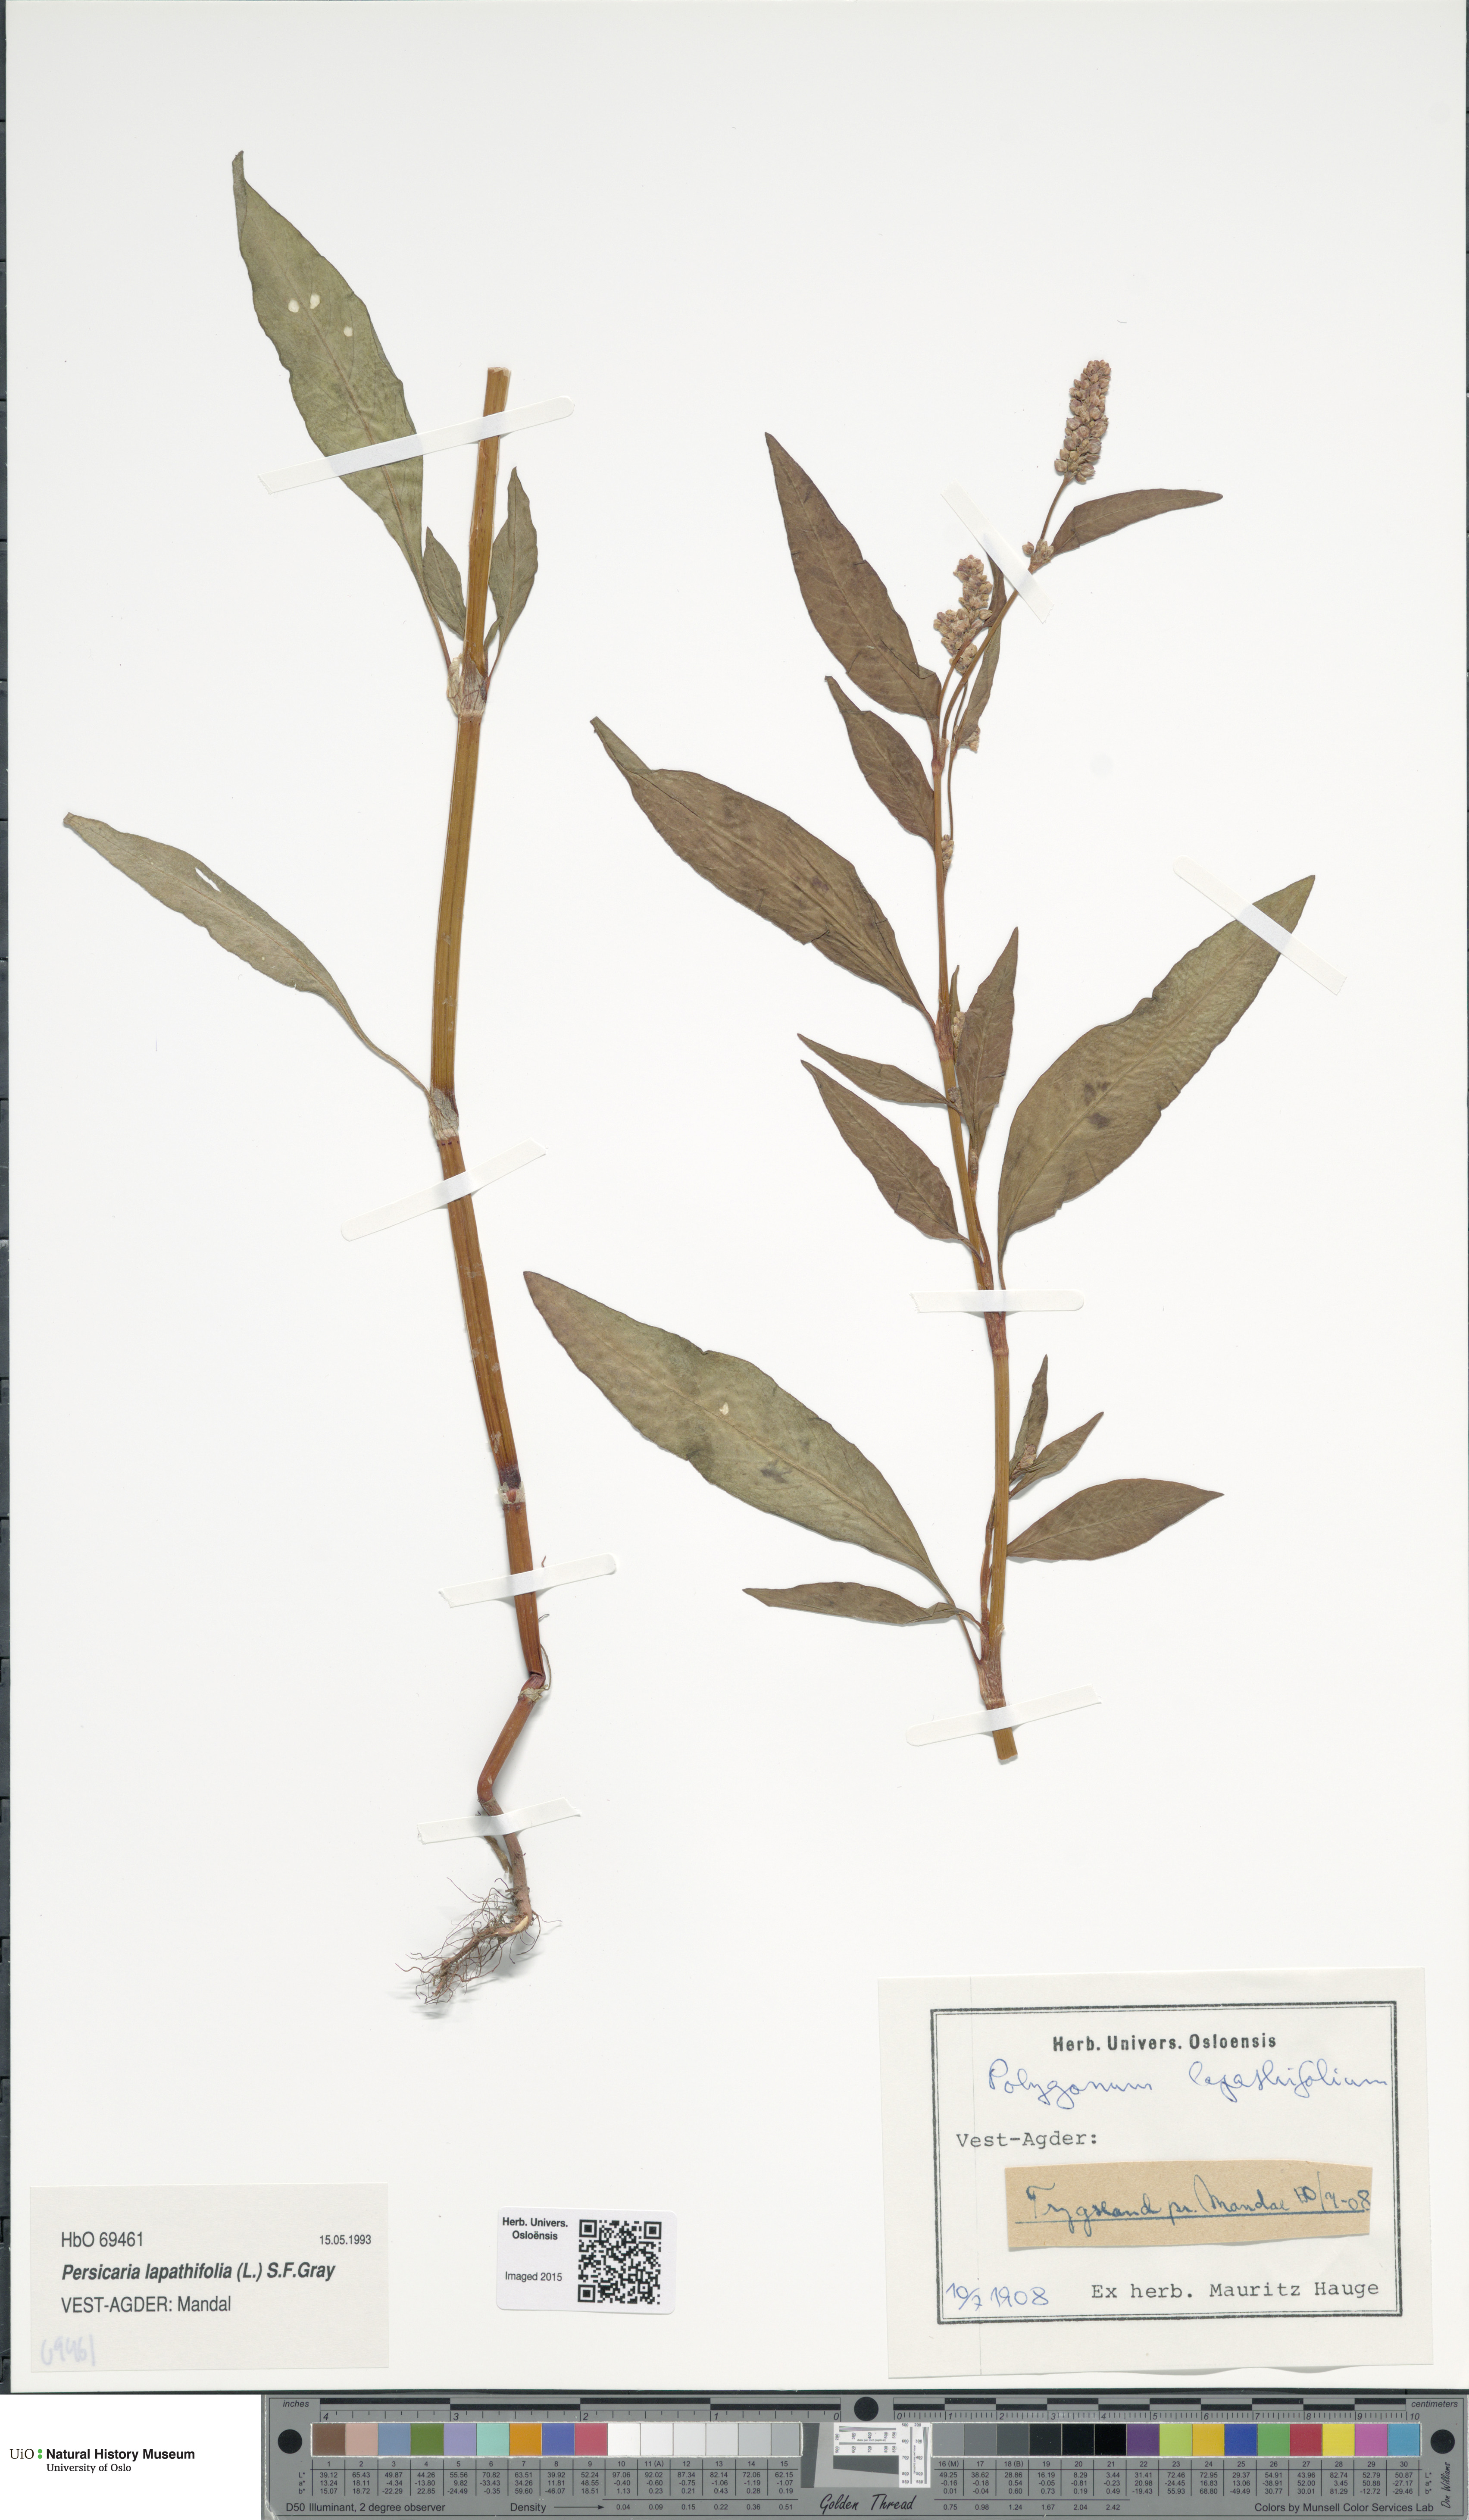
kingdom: Plantae
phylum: Tracheophyta
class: Magnoliopsida
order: Caryophyllales
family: Polygonaceae
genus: Persicaria
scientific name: Persicaria lapathifolia
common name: Curlytop knotweed
